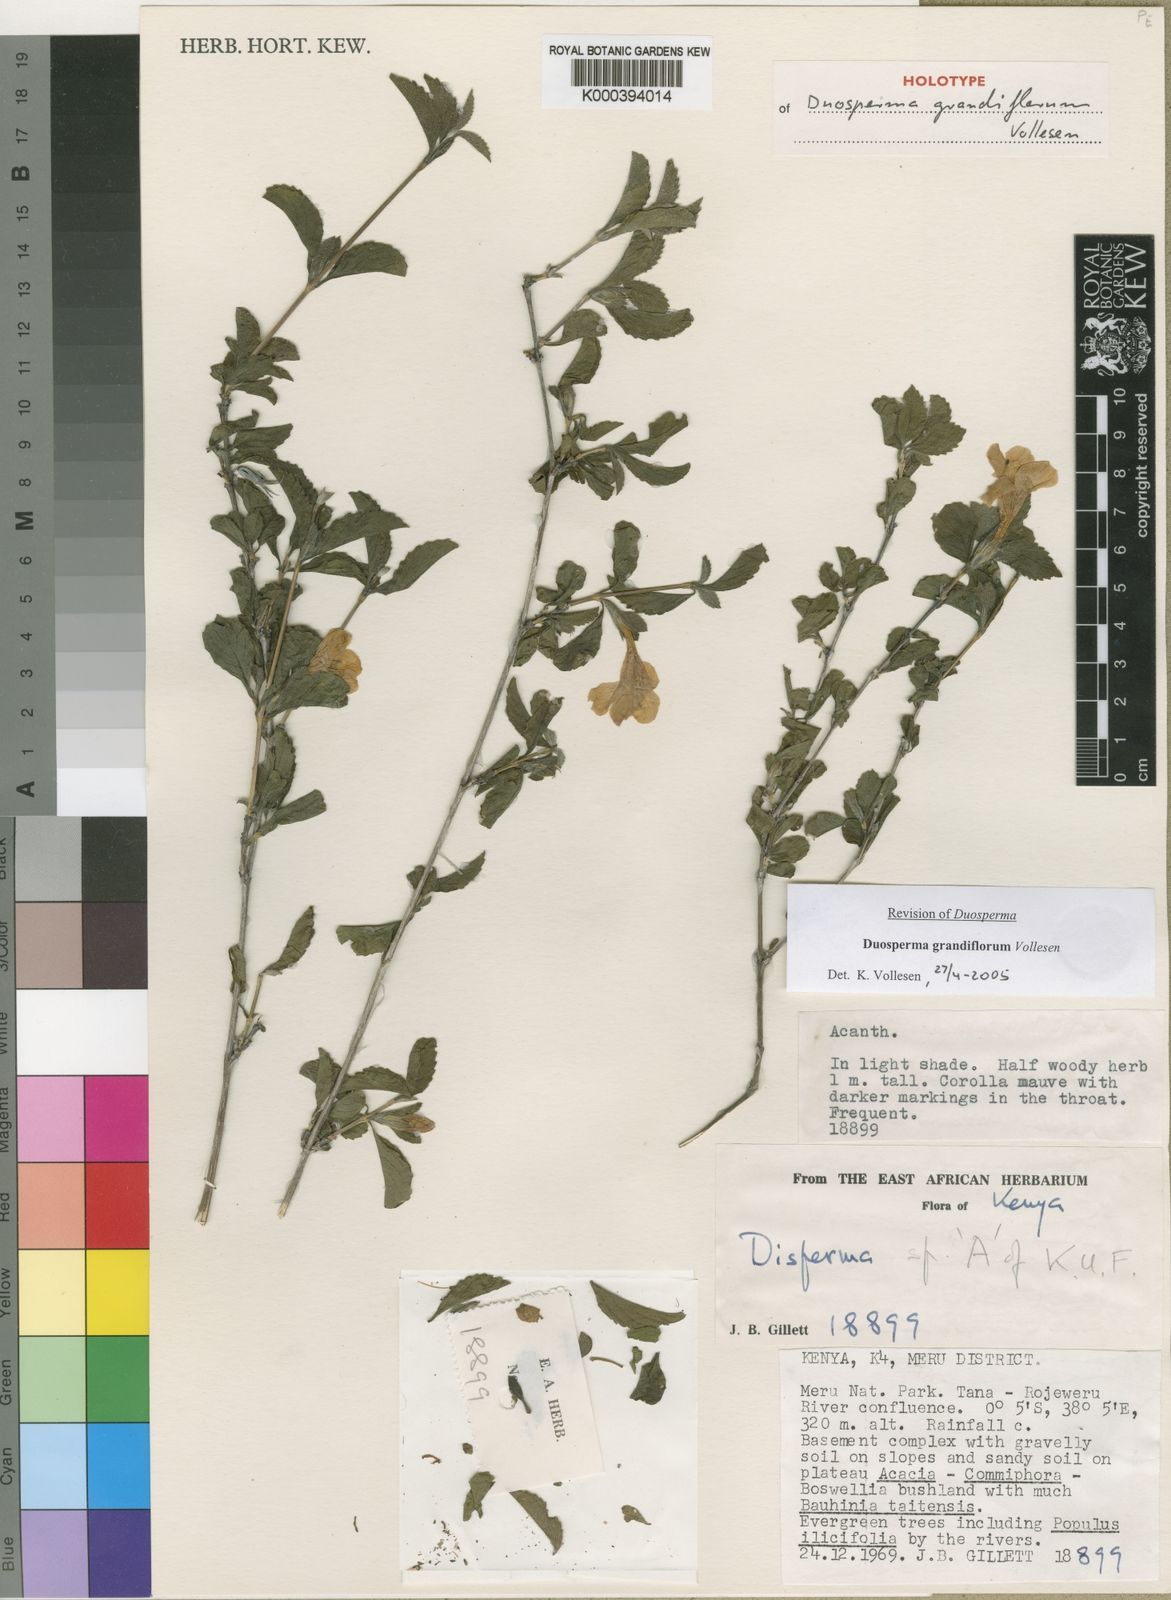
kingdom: Plantae
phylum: Tracheophyta
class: Magnoliopsida
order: Lamiales
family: Acanthaceae
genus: Duosperma
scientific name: Duosperma grandiflorum
